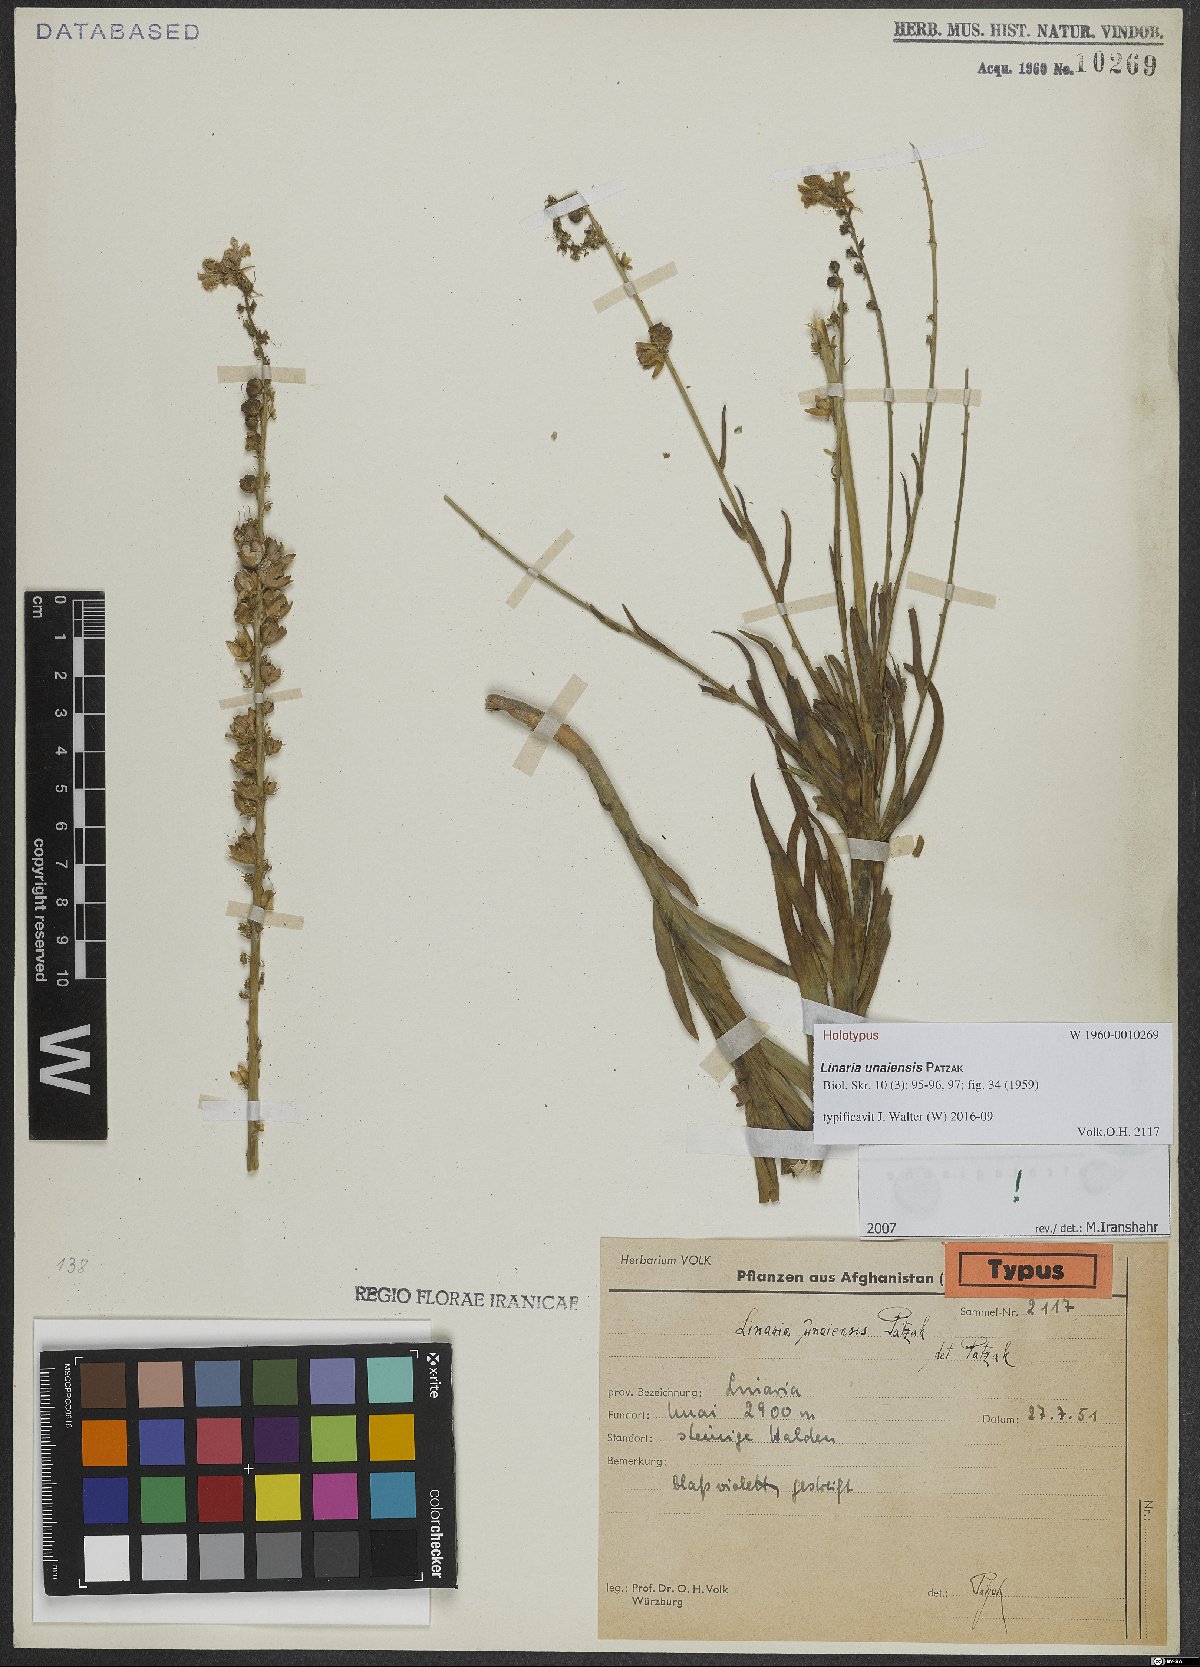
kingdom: Plantae
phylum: Tracheophyta
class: Magnoliopsida
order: Lamiales
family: Plantaginaceae
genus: Linaria
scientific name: Linaria unaiensis
